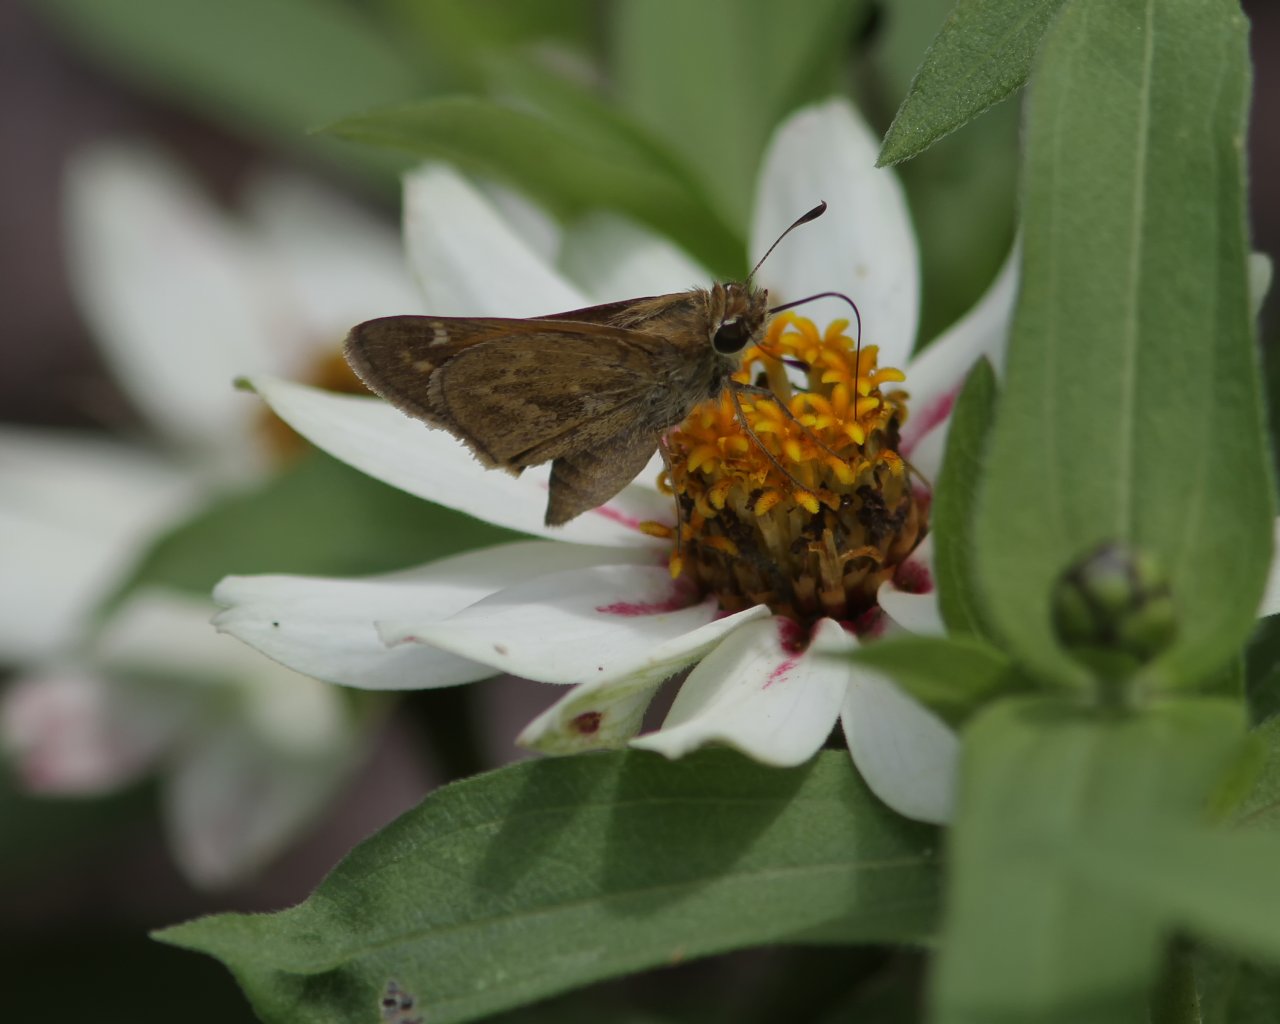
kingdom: Animalia
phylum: Arthropoda
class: Insecta
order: Lepidoptera
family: Hesperiidae
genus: Atalopedes
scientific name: Atalopedes campestris
